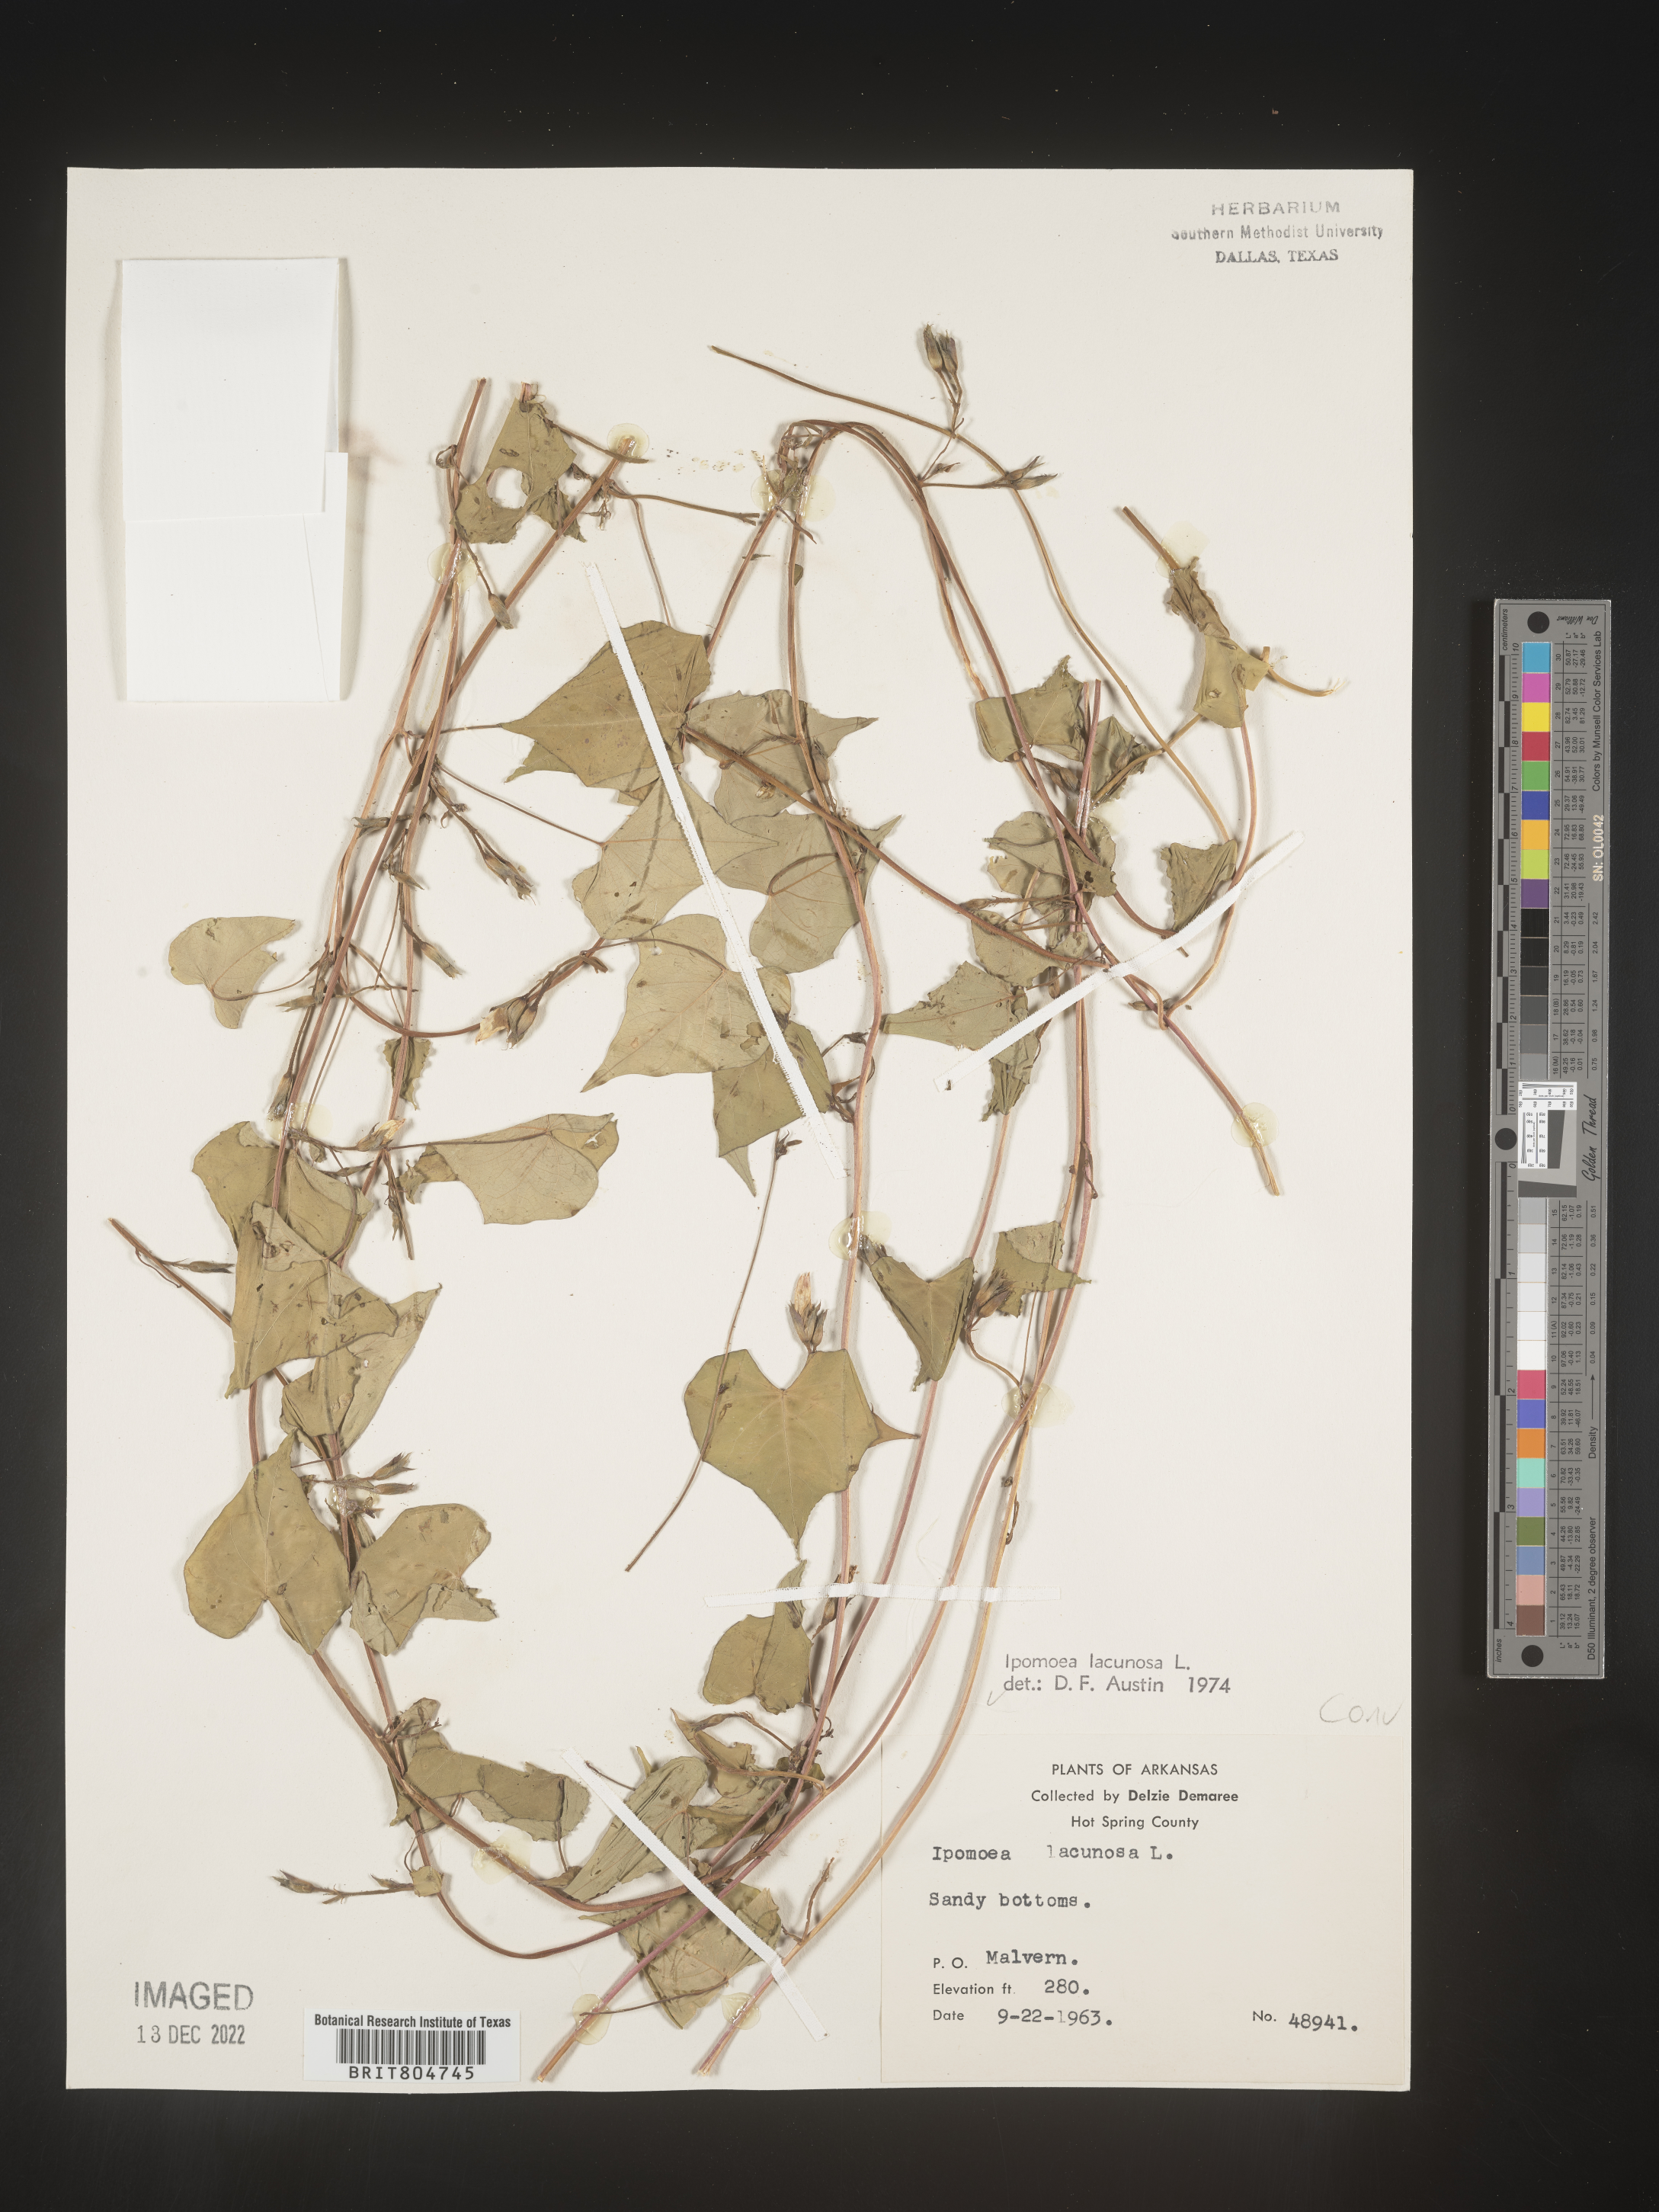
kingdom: Plantae
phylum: Tracheophyta
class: Magnoliopsida
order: Solanales
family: Convolvulaceae
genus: Ipomoea
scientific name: Ipomoea lacunosa
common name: White morning-glory
